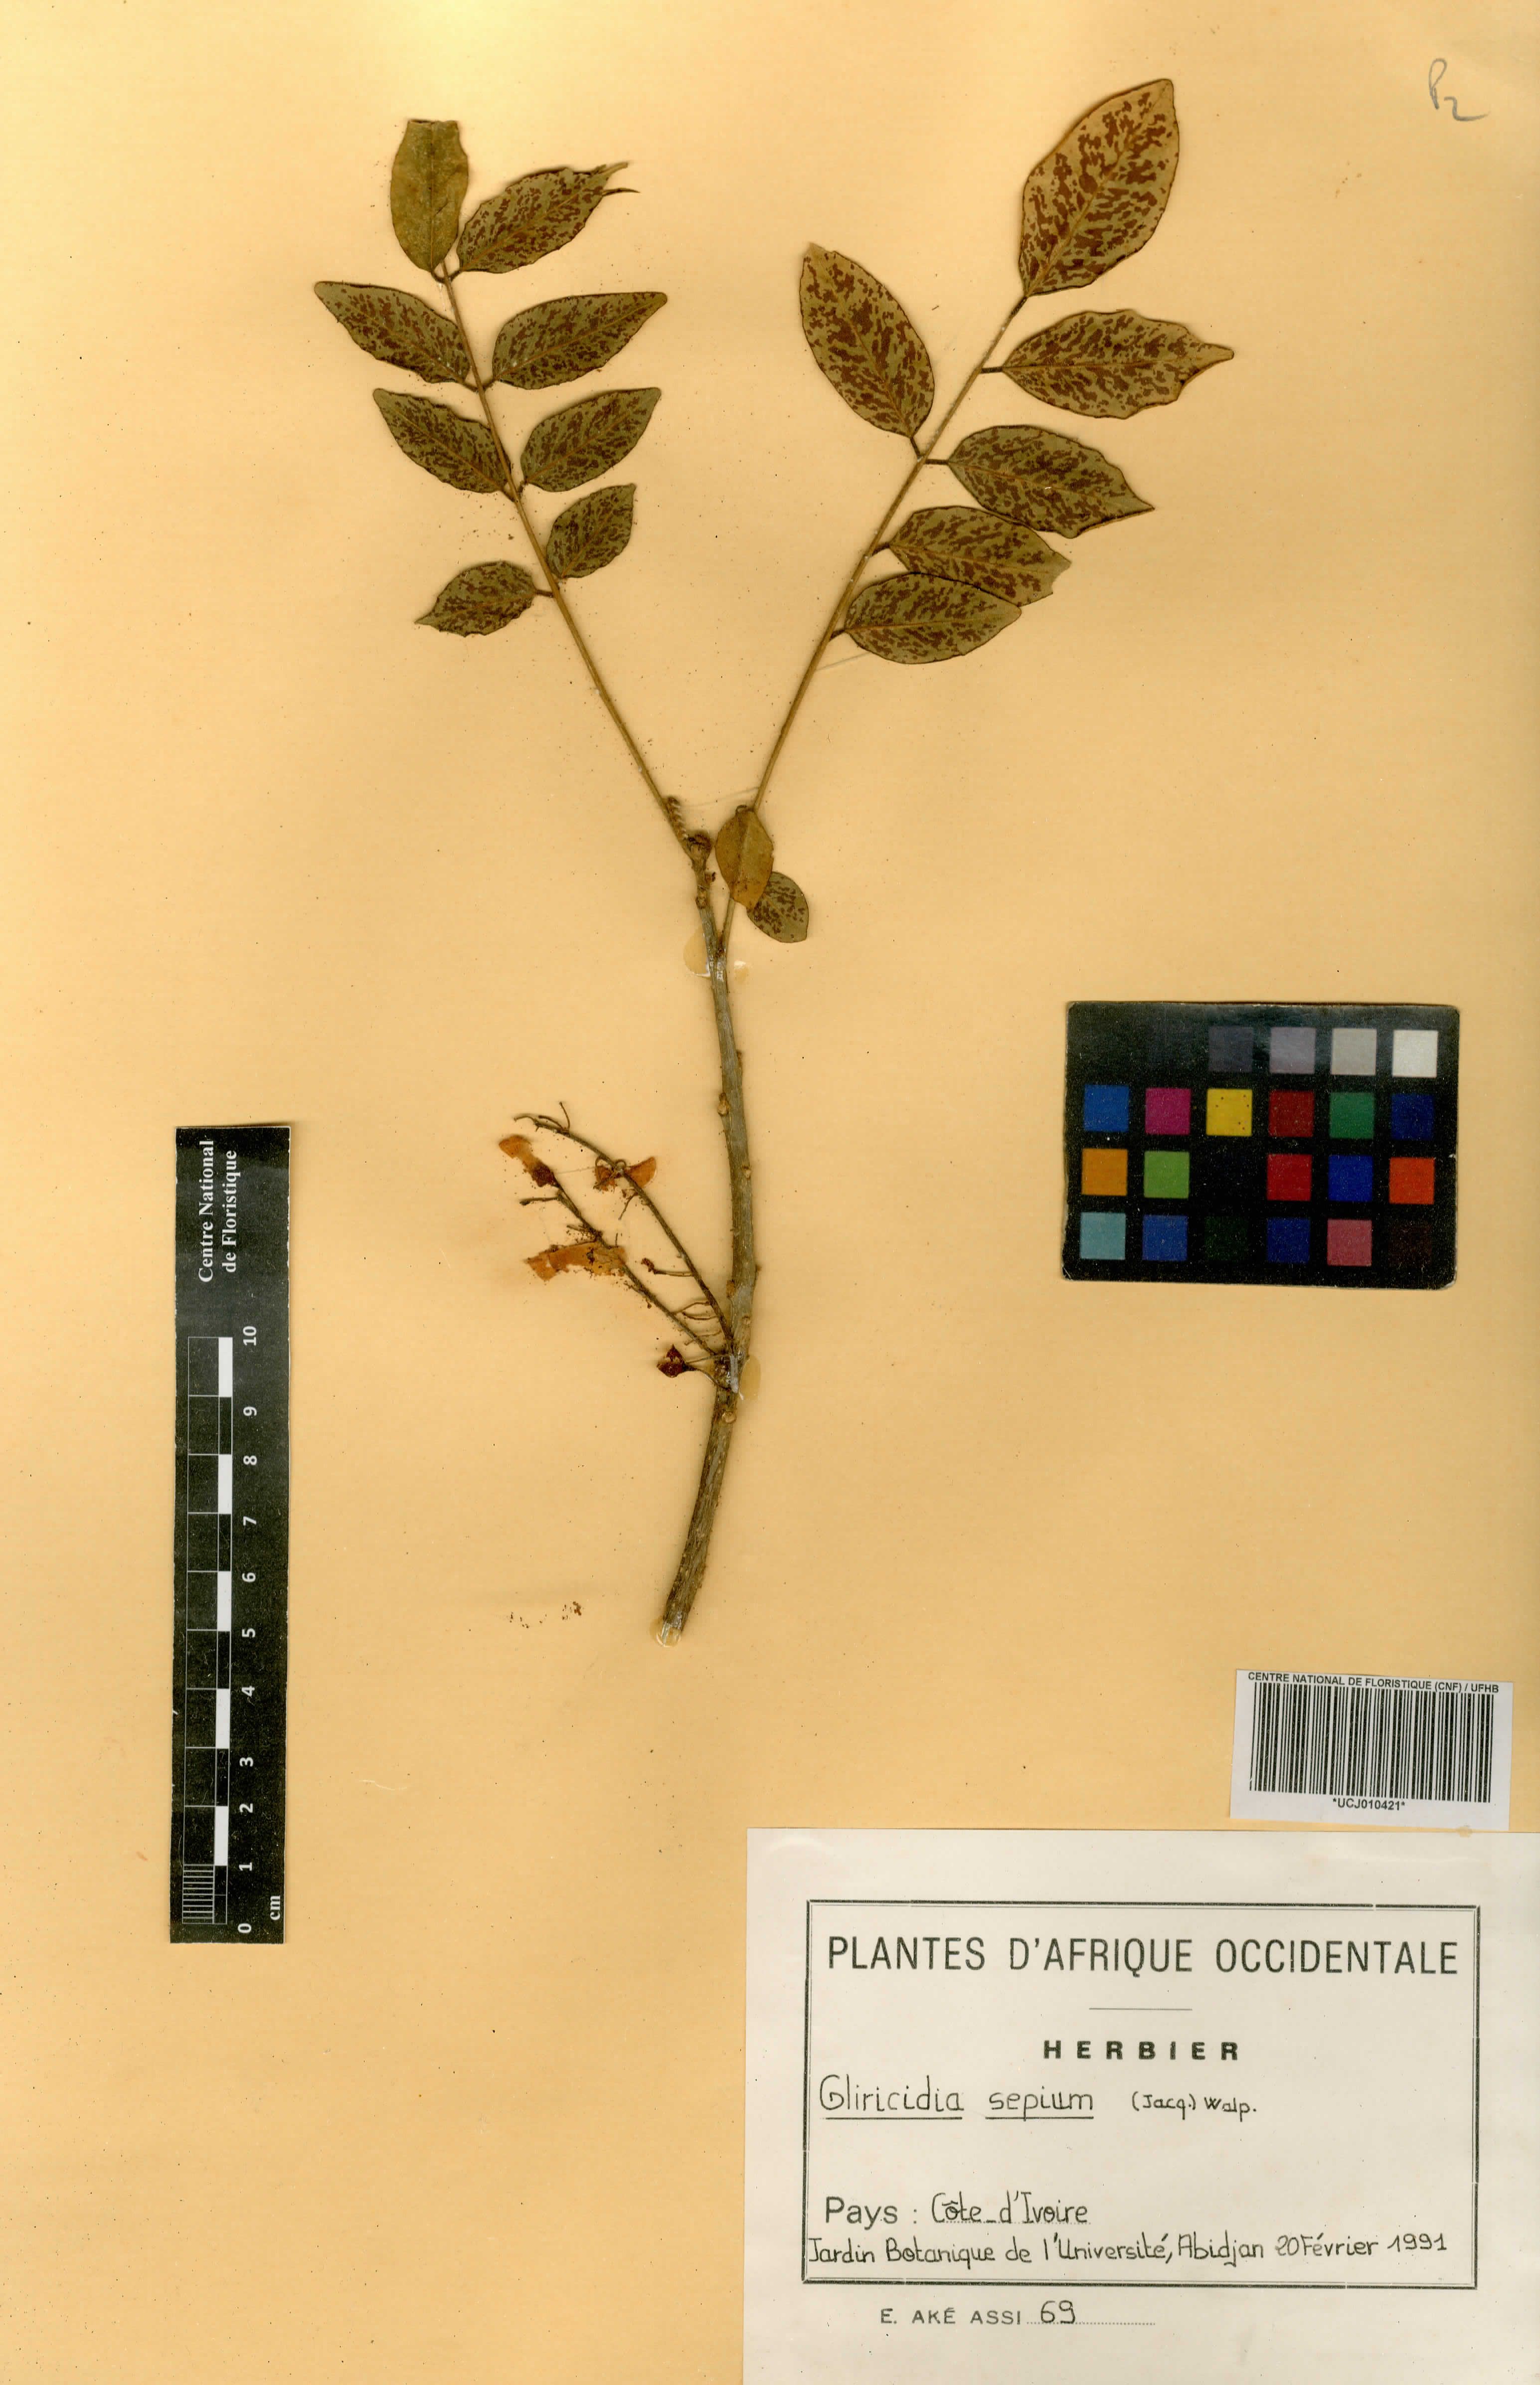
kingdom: Plantae
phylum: Tracheophyta
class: Magnoliopsida
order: Fabales
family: Fabaceae
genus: Gliricidia
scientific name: Gliricidia sepium
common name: Quickstick
